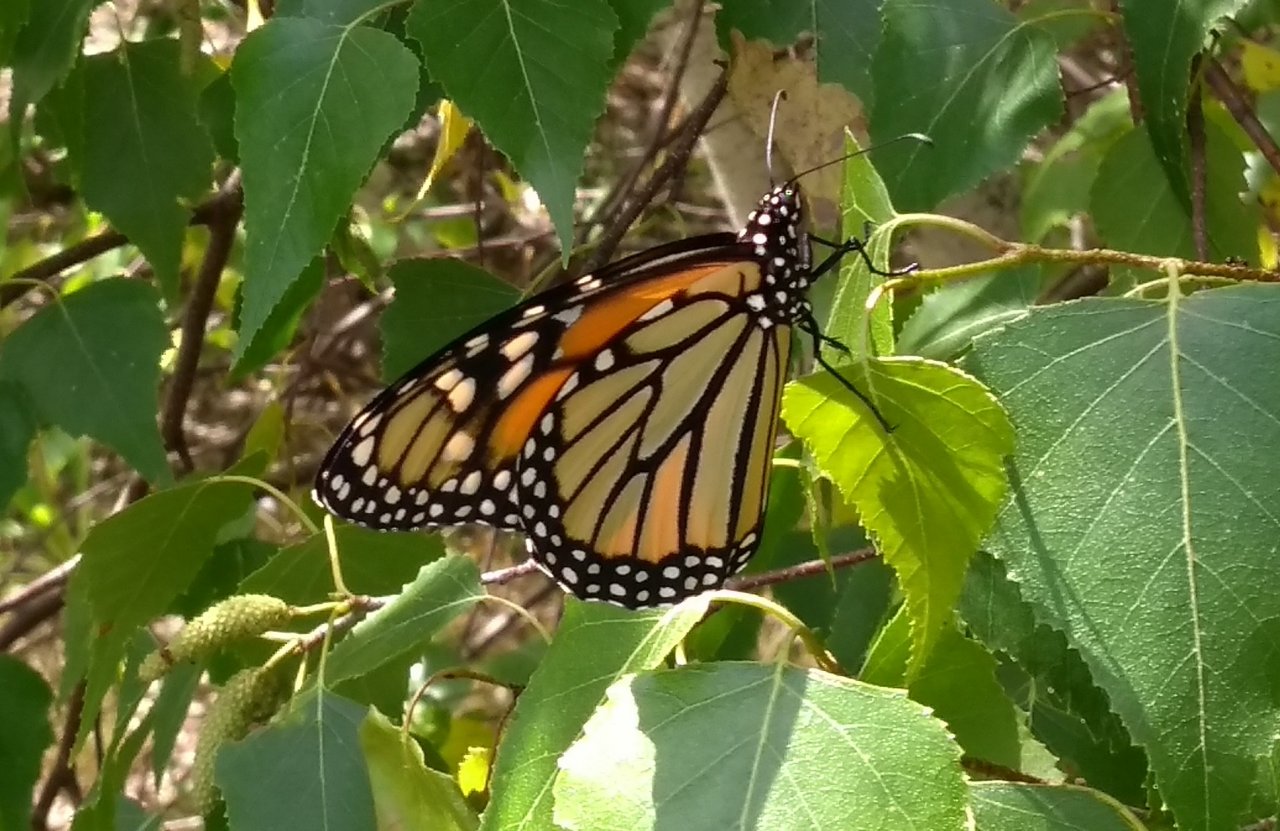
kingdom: Animalia
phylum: Arthropoda
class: Insecta
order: Lepidoptera
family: Nymphalidae
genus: Danaus
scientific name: Danaus plexippus
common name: Monarch
